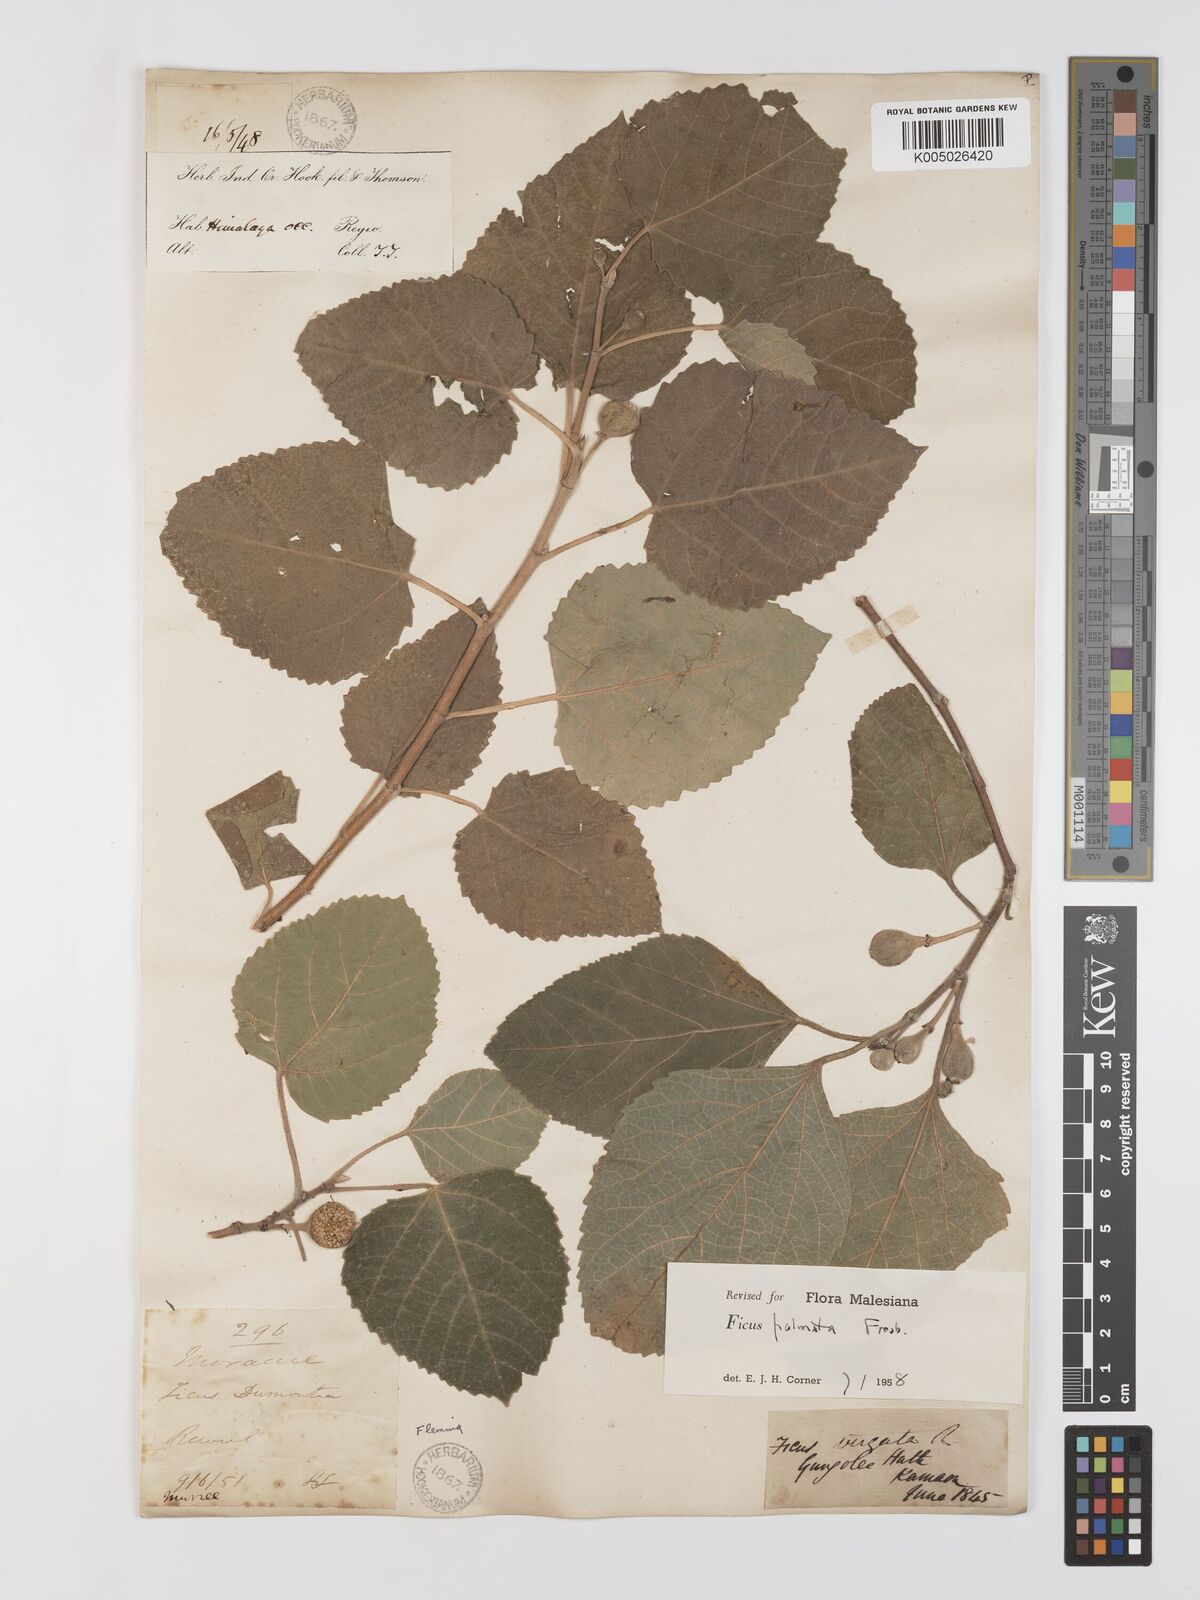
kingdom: Plantae
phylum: Tracheophyta
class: Magnoliopsida
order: Rosales
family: Moraceae
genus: Ficus
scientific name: Ficus
